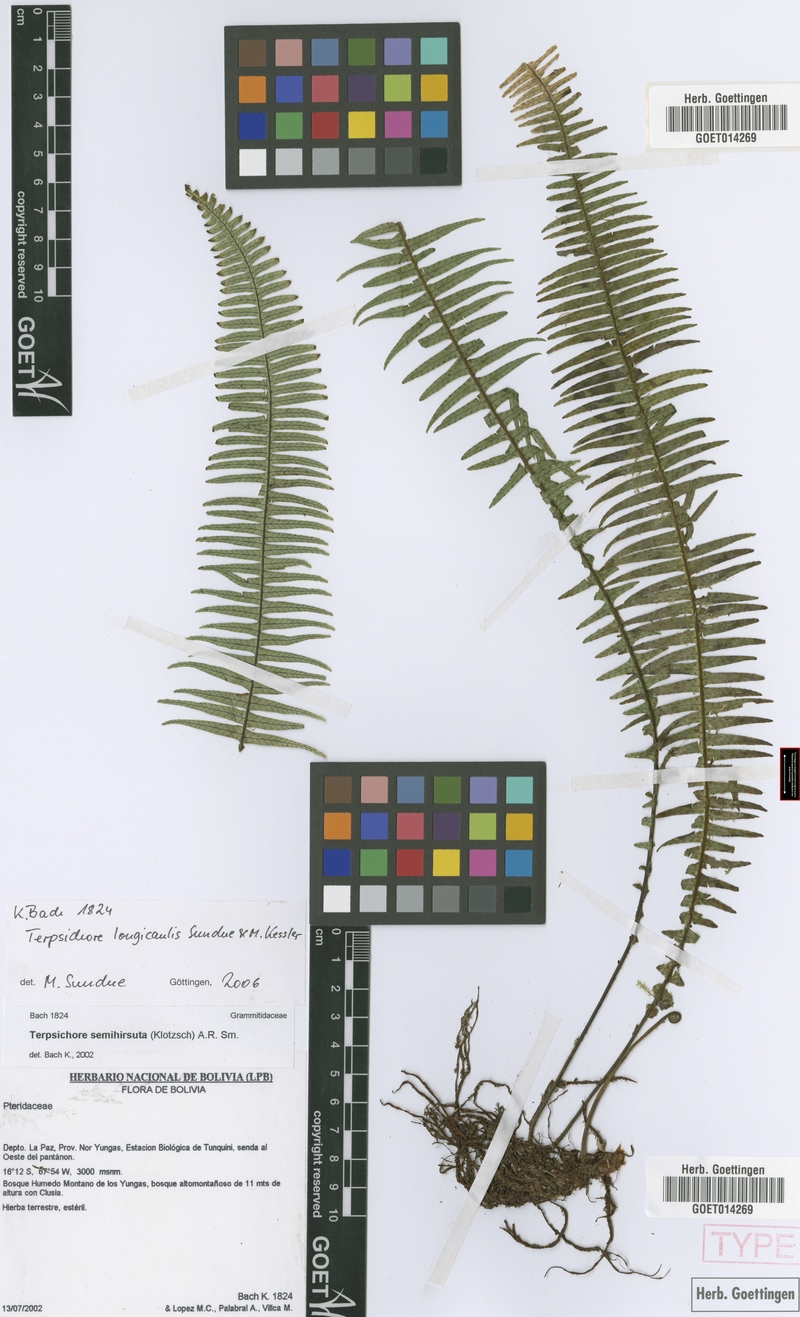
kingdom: Plantae
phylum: Tracheophyta
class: Polypodiopsida
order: Polypodiales
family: Polypodiaceae
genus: Mycopteris
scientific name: Mycopteris longicaulis
